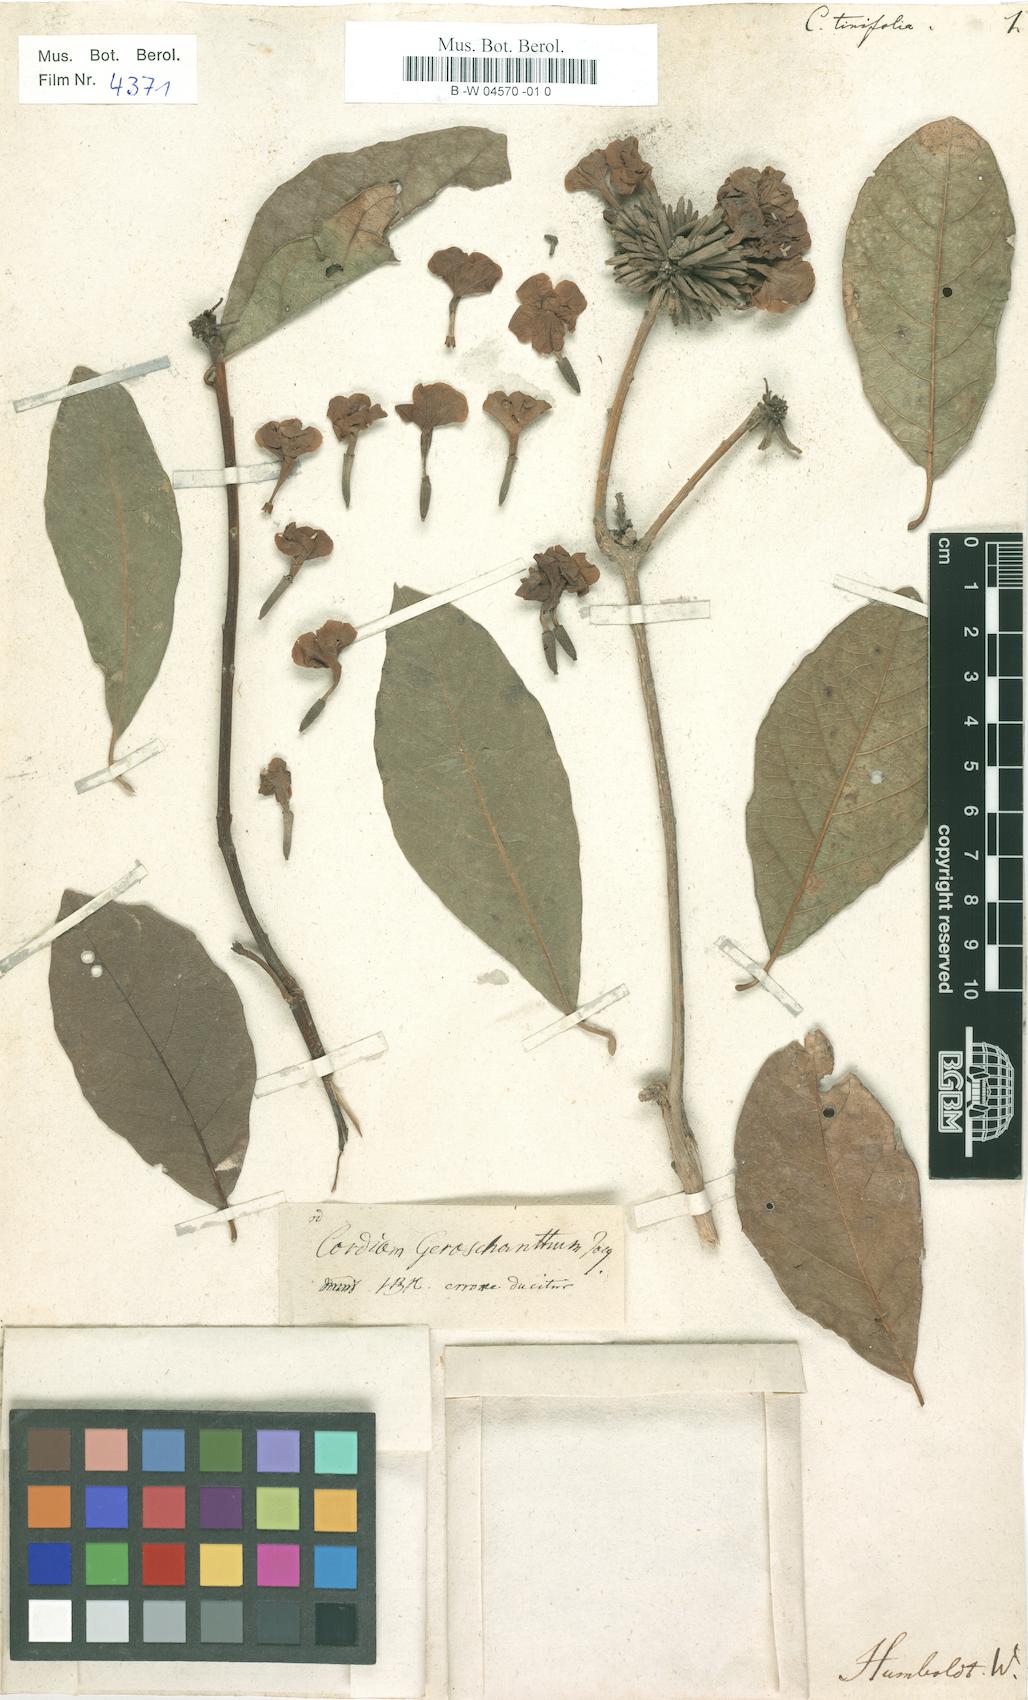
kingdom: Plantae
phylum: Tracheophyta
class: Magnoliopsida
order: Boraginales
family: Cordiaceae
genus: Cordia
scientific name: Cordia tinifolia
